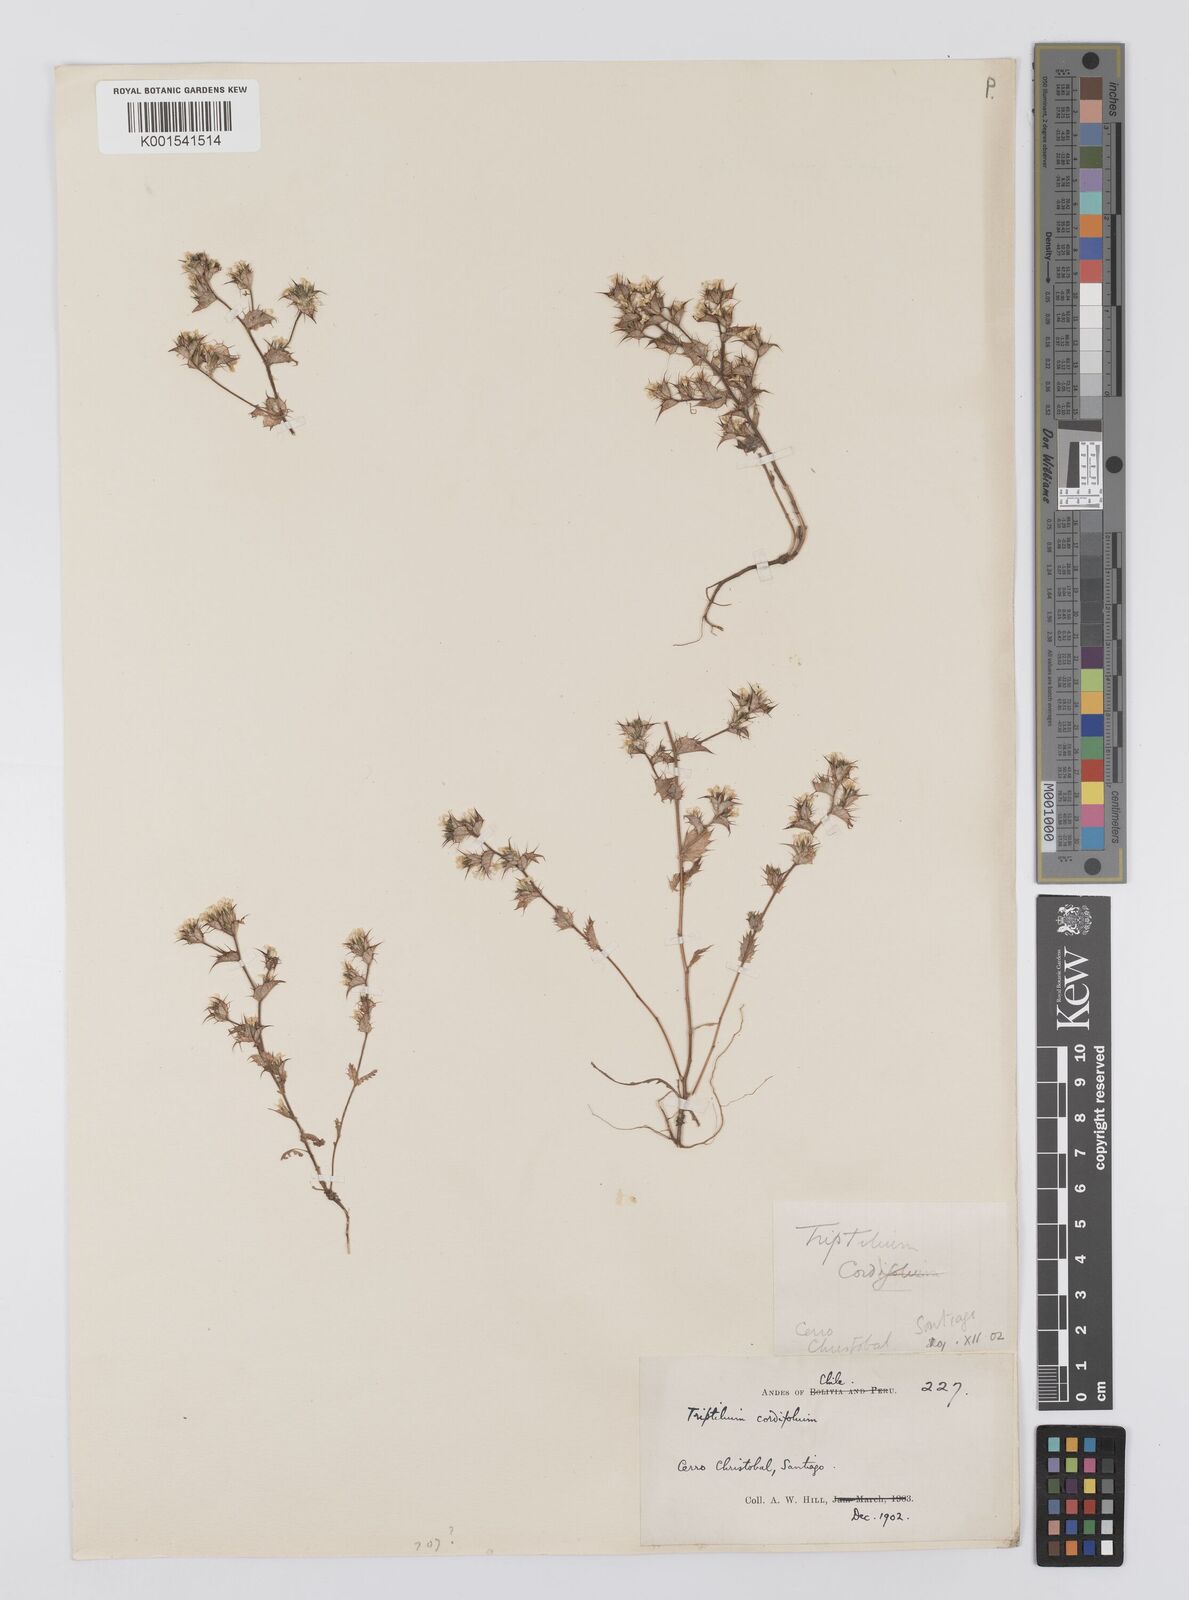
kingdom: Plantae
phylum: Tracheophyta
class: Magnoliopsida
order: Asterales
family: Asteraceae
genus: Triptilion
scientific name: Triptilion cordifolium
